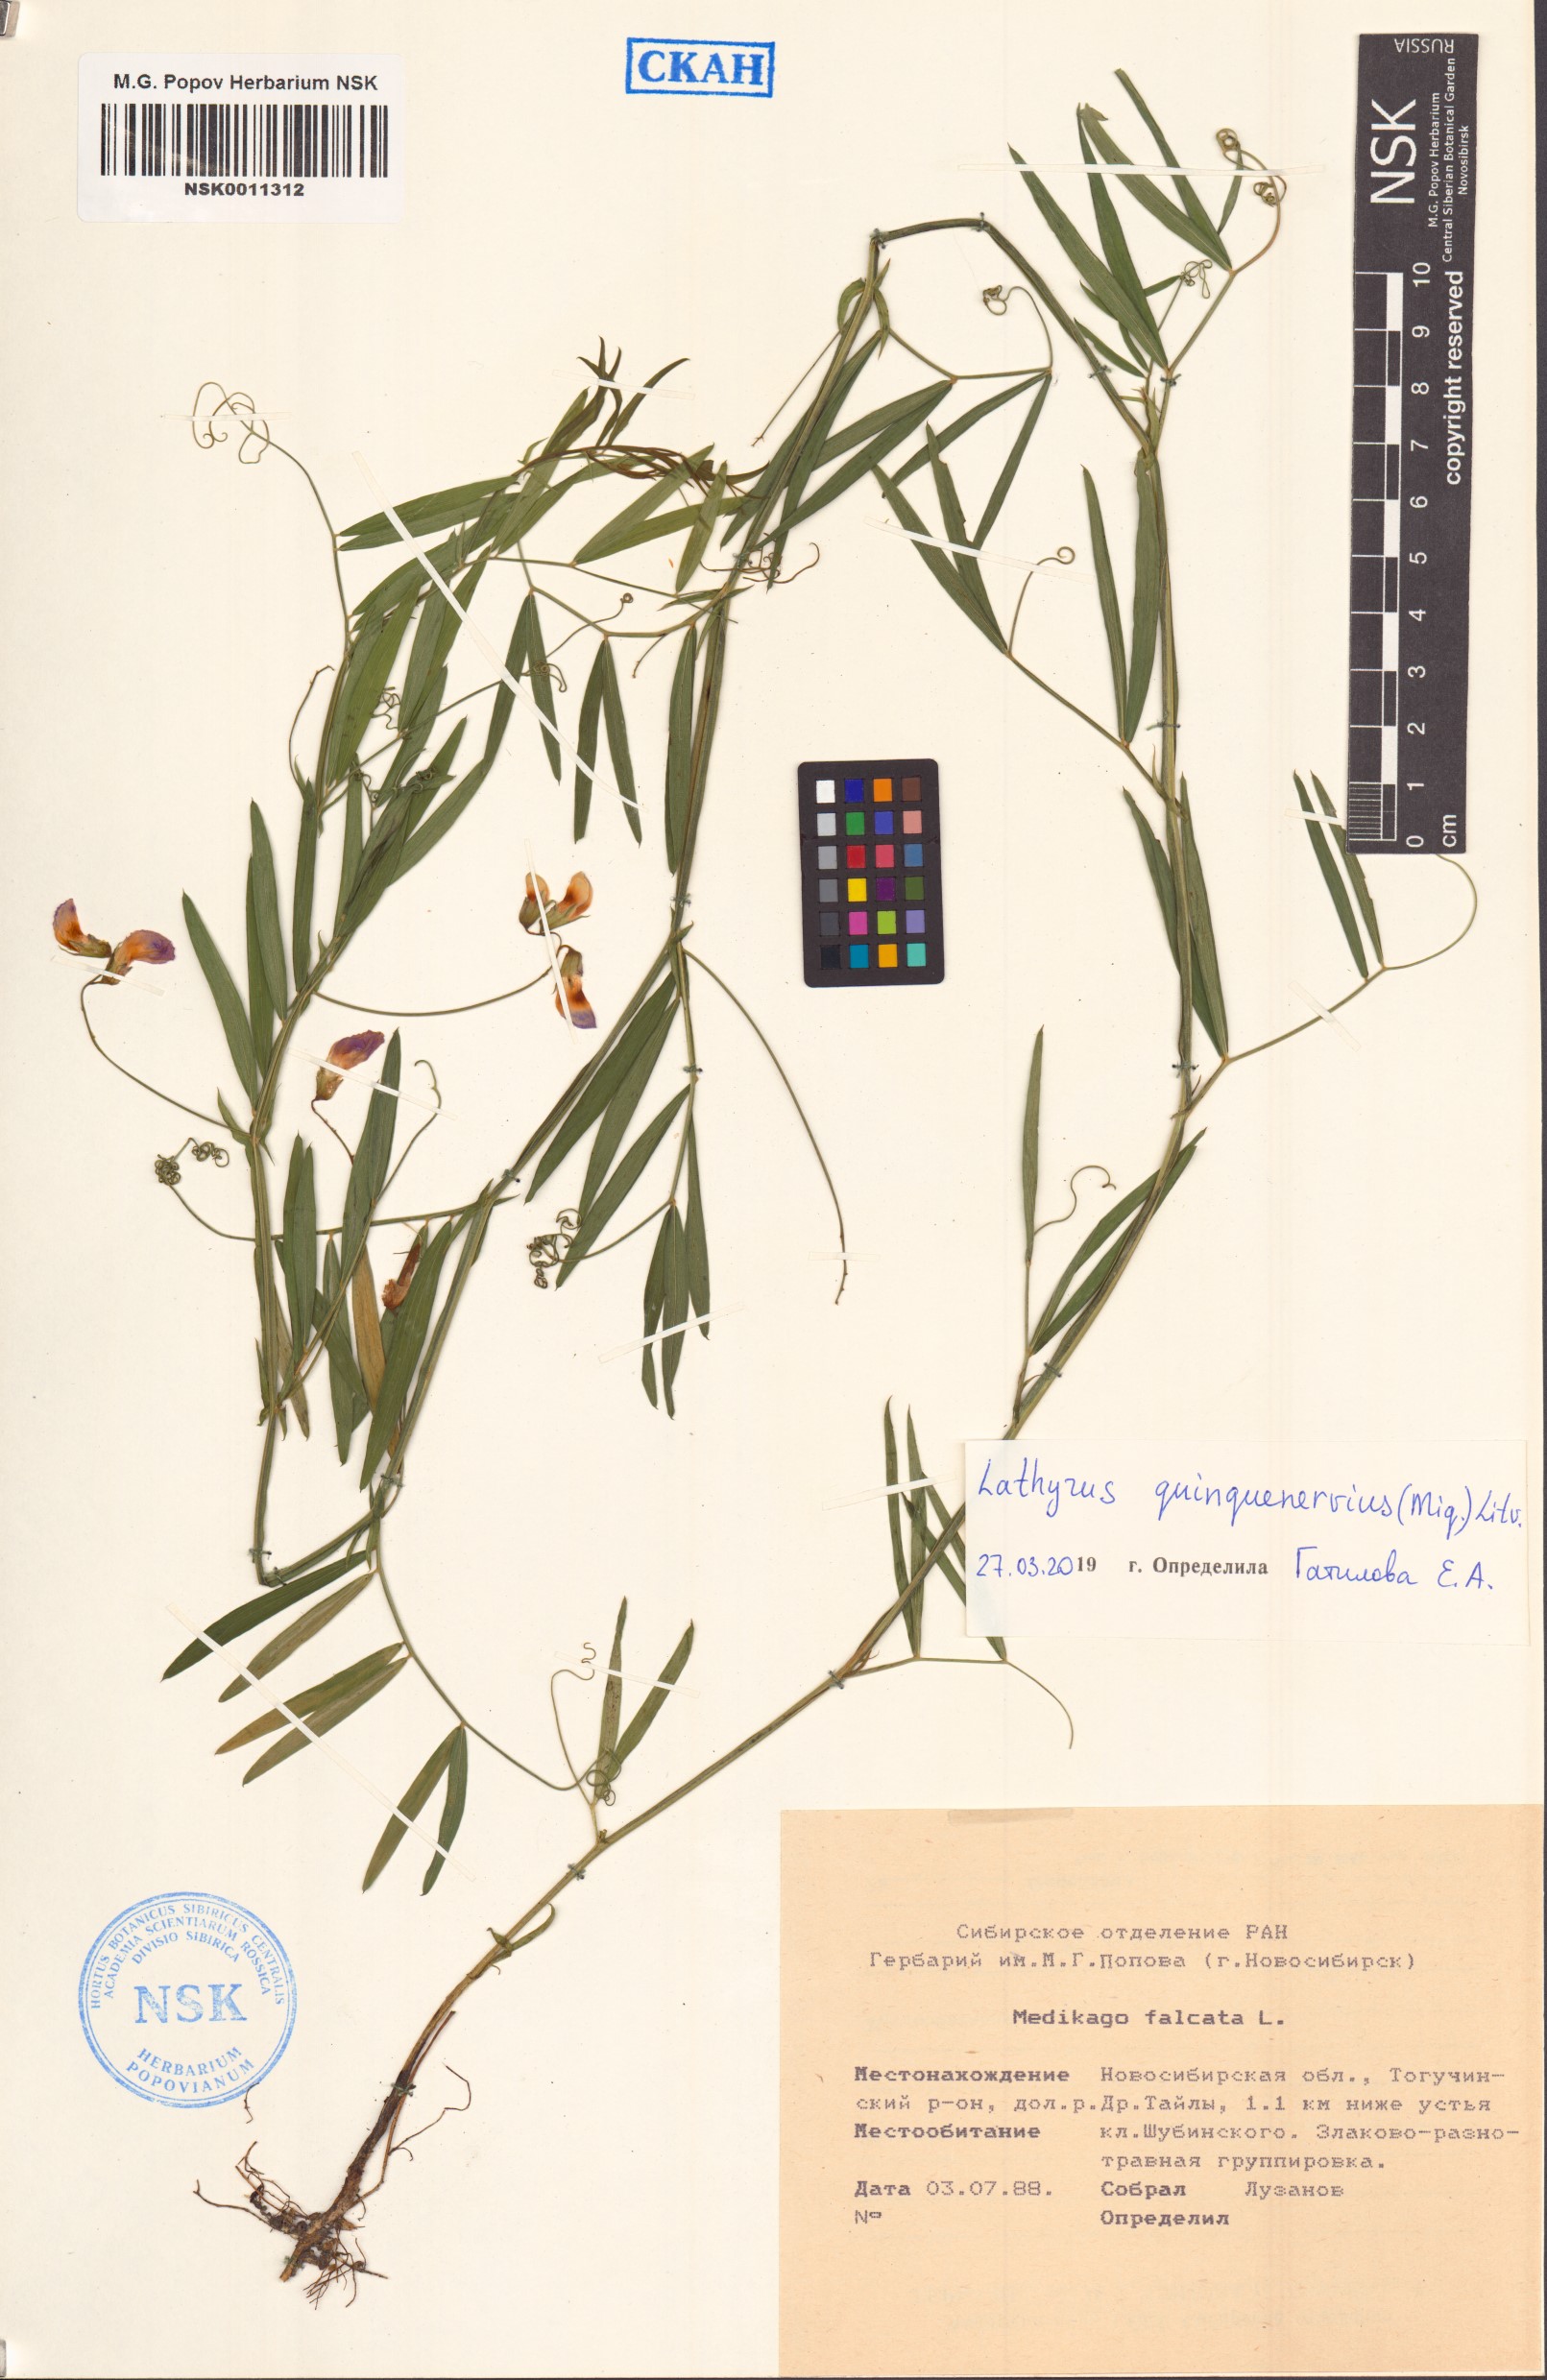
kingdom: Plantae
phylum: Tracheophyta
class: Magnoliopsida
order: Fabales
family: Fabaceae
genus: Lathyrus
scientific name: Lathyrus quinquenervius
